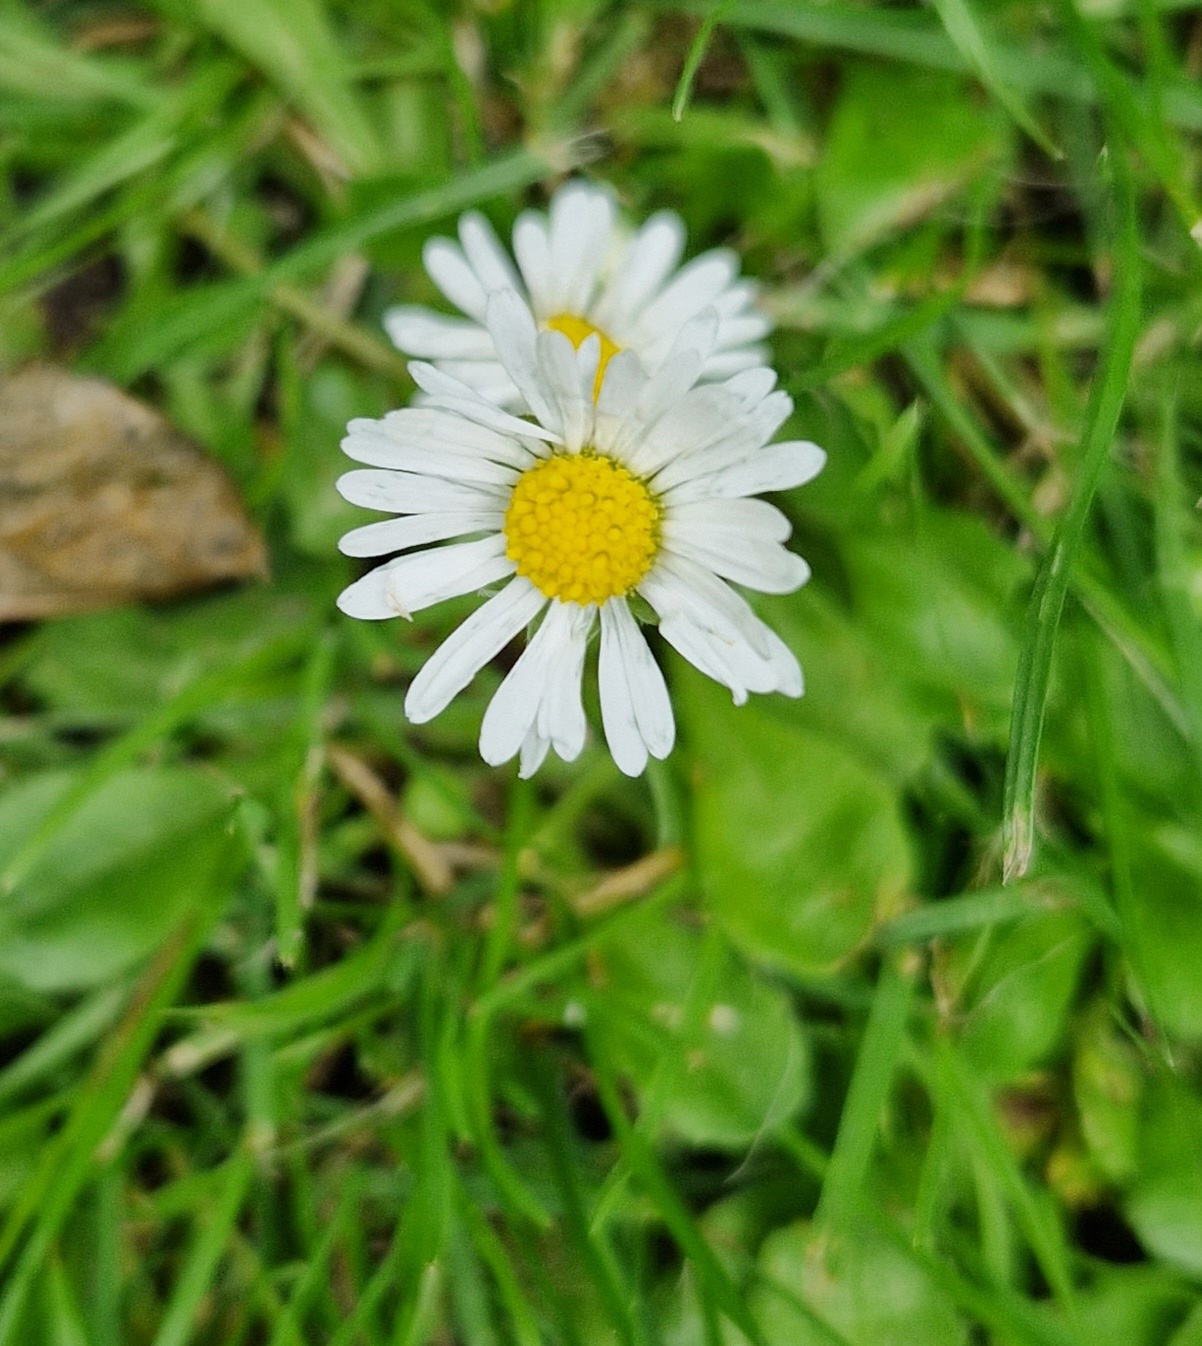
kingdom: Plantae
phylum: Tracheophyta
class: Magnoliopsida
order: Asterales
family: Asteraceae
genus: Bellis
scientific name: Bellis perennis
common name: Tusindfryd
